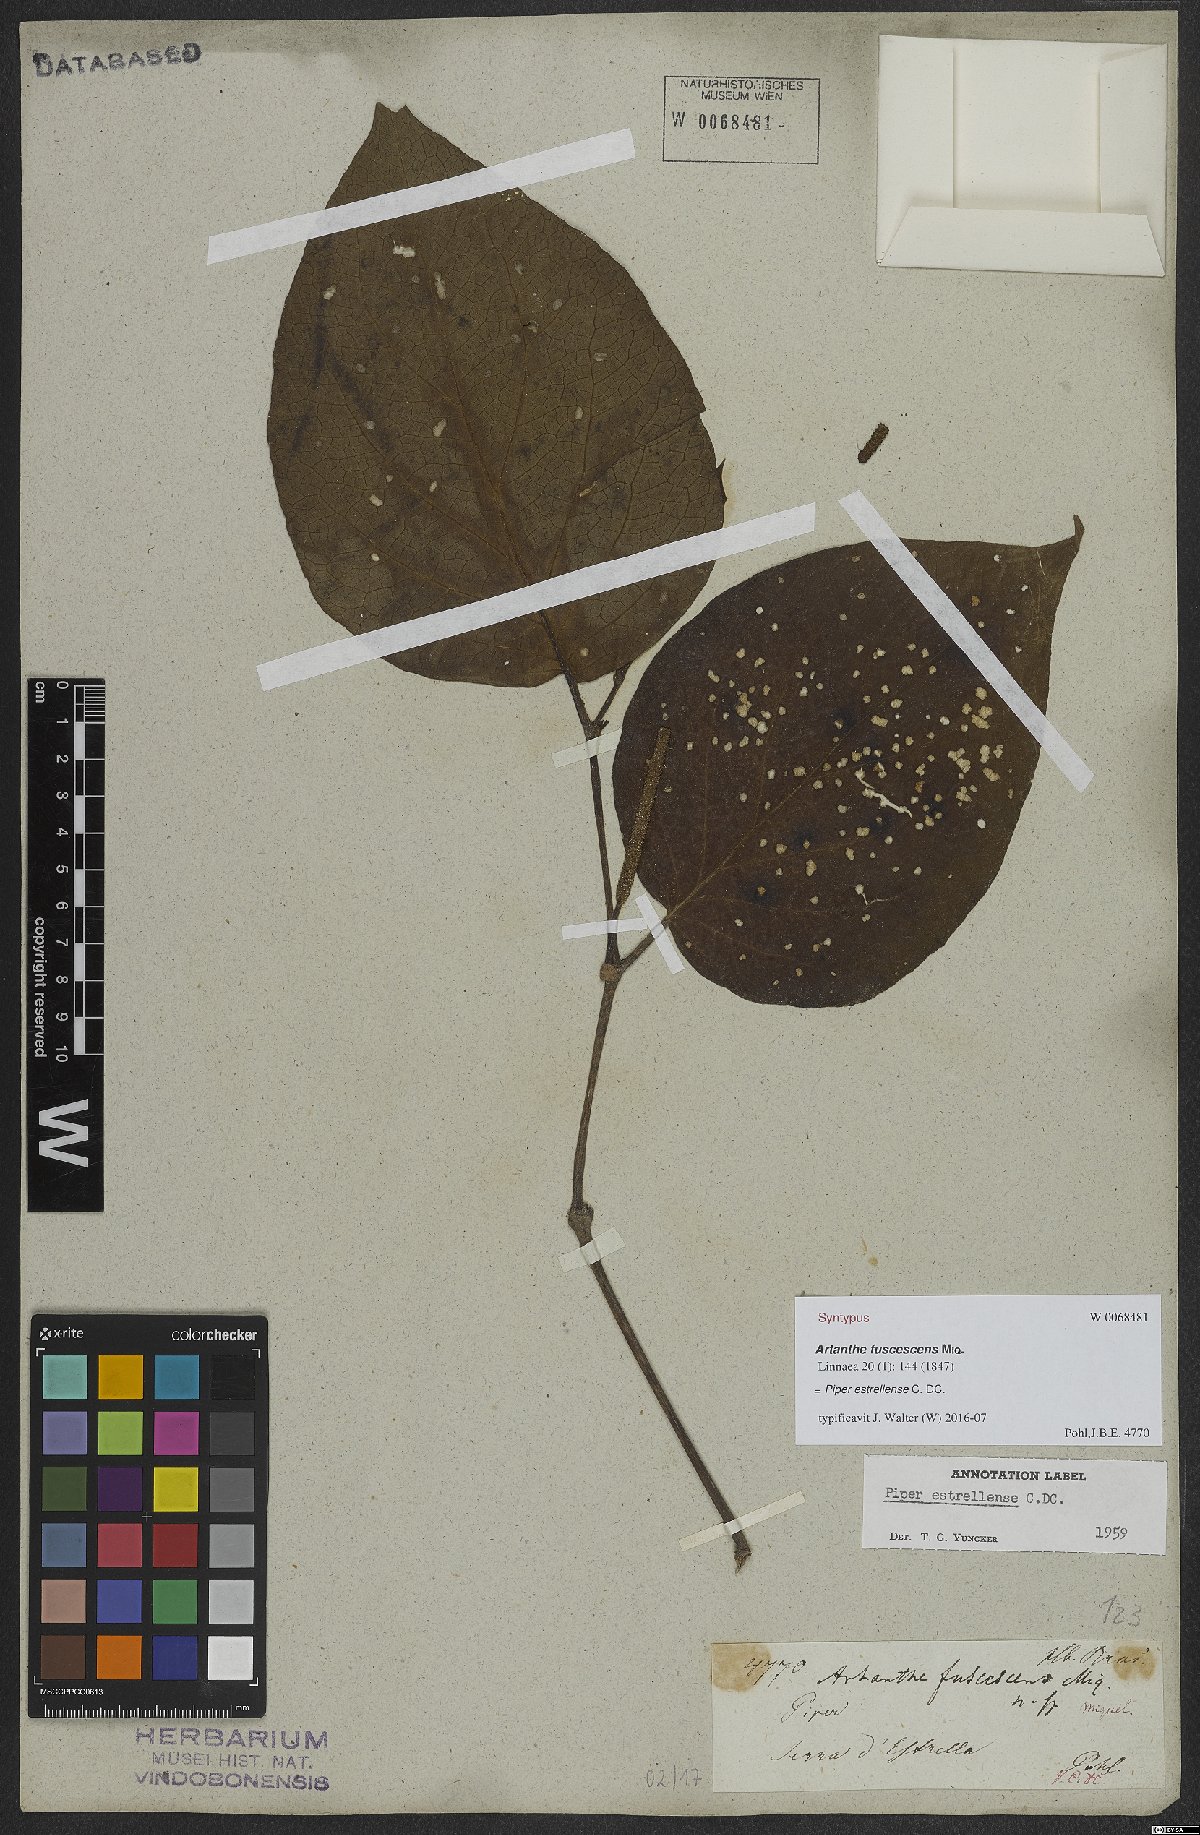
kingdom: Plantae
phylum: Tracheophyta
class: Magnoliopsida
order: Piperales
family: Piperaceae
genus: Piper
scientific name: Piper tectoniifolium
